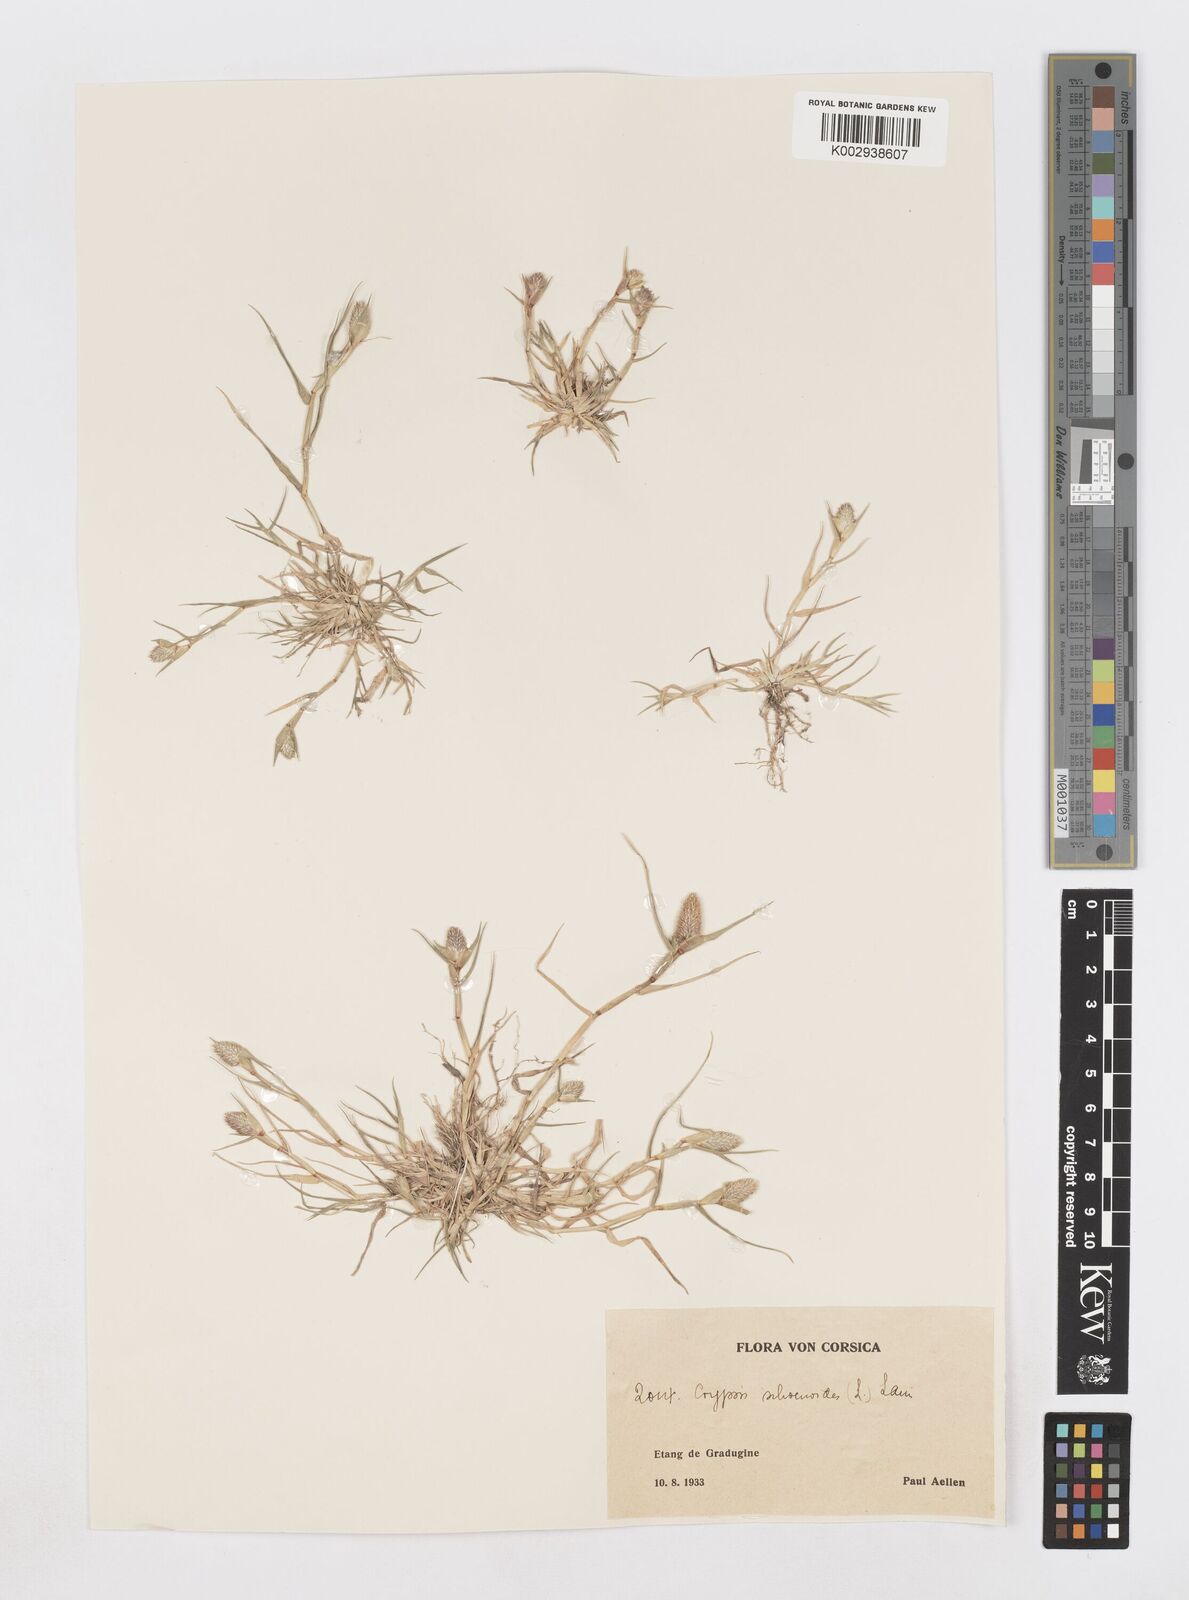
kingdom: Plantae
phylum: Tracheophyta
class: Liliopsida
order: Poales
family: Poaceae
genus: Sporobolus
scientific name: Sporobolus schoenoides
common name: Rush-like timothy
